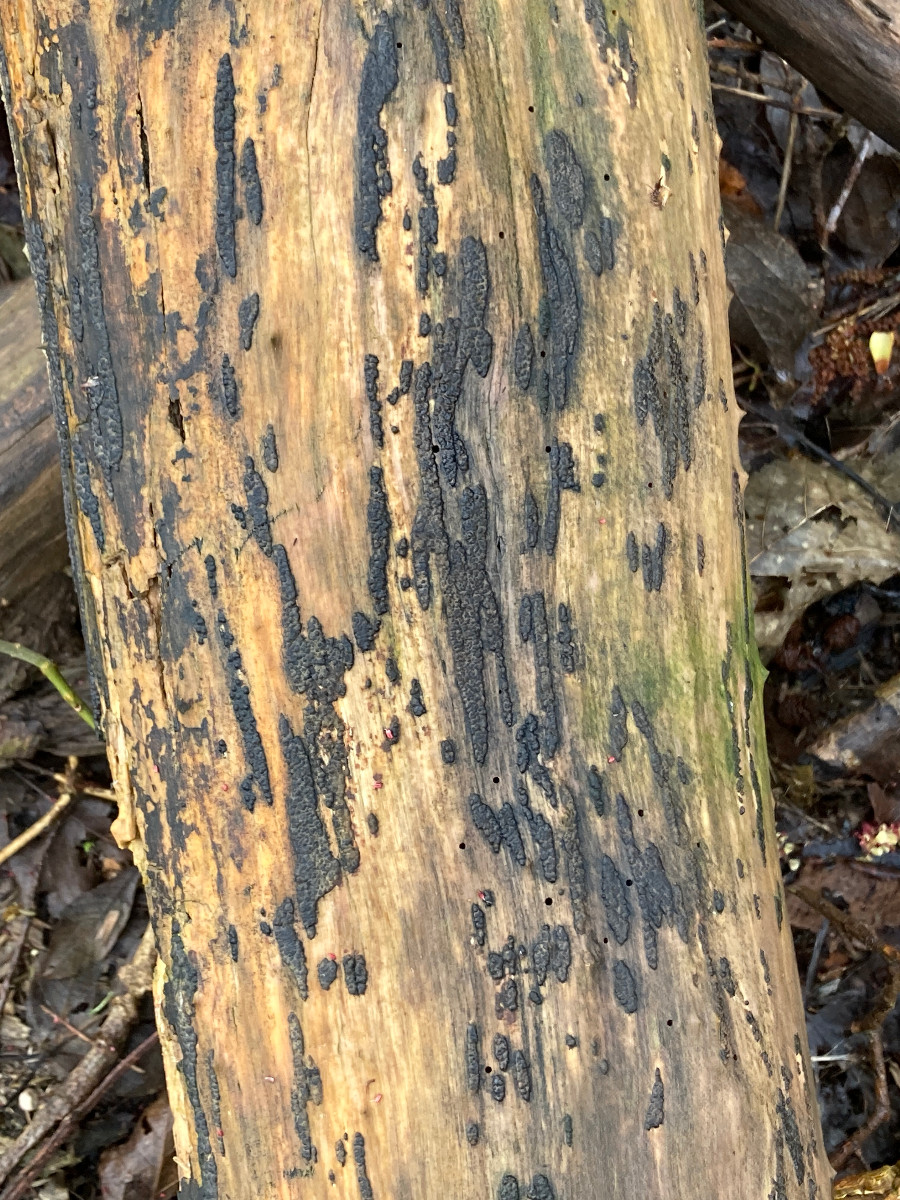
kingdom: Fungi
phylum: Ascomycota
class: Sordariomycetes
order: Xylariales
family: Xylariaceae
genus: Nemania
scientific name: Nemania
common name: kuldyne
